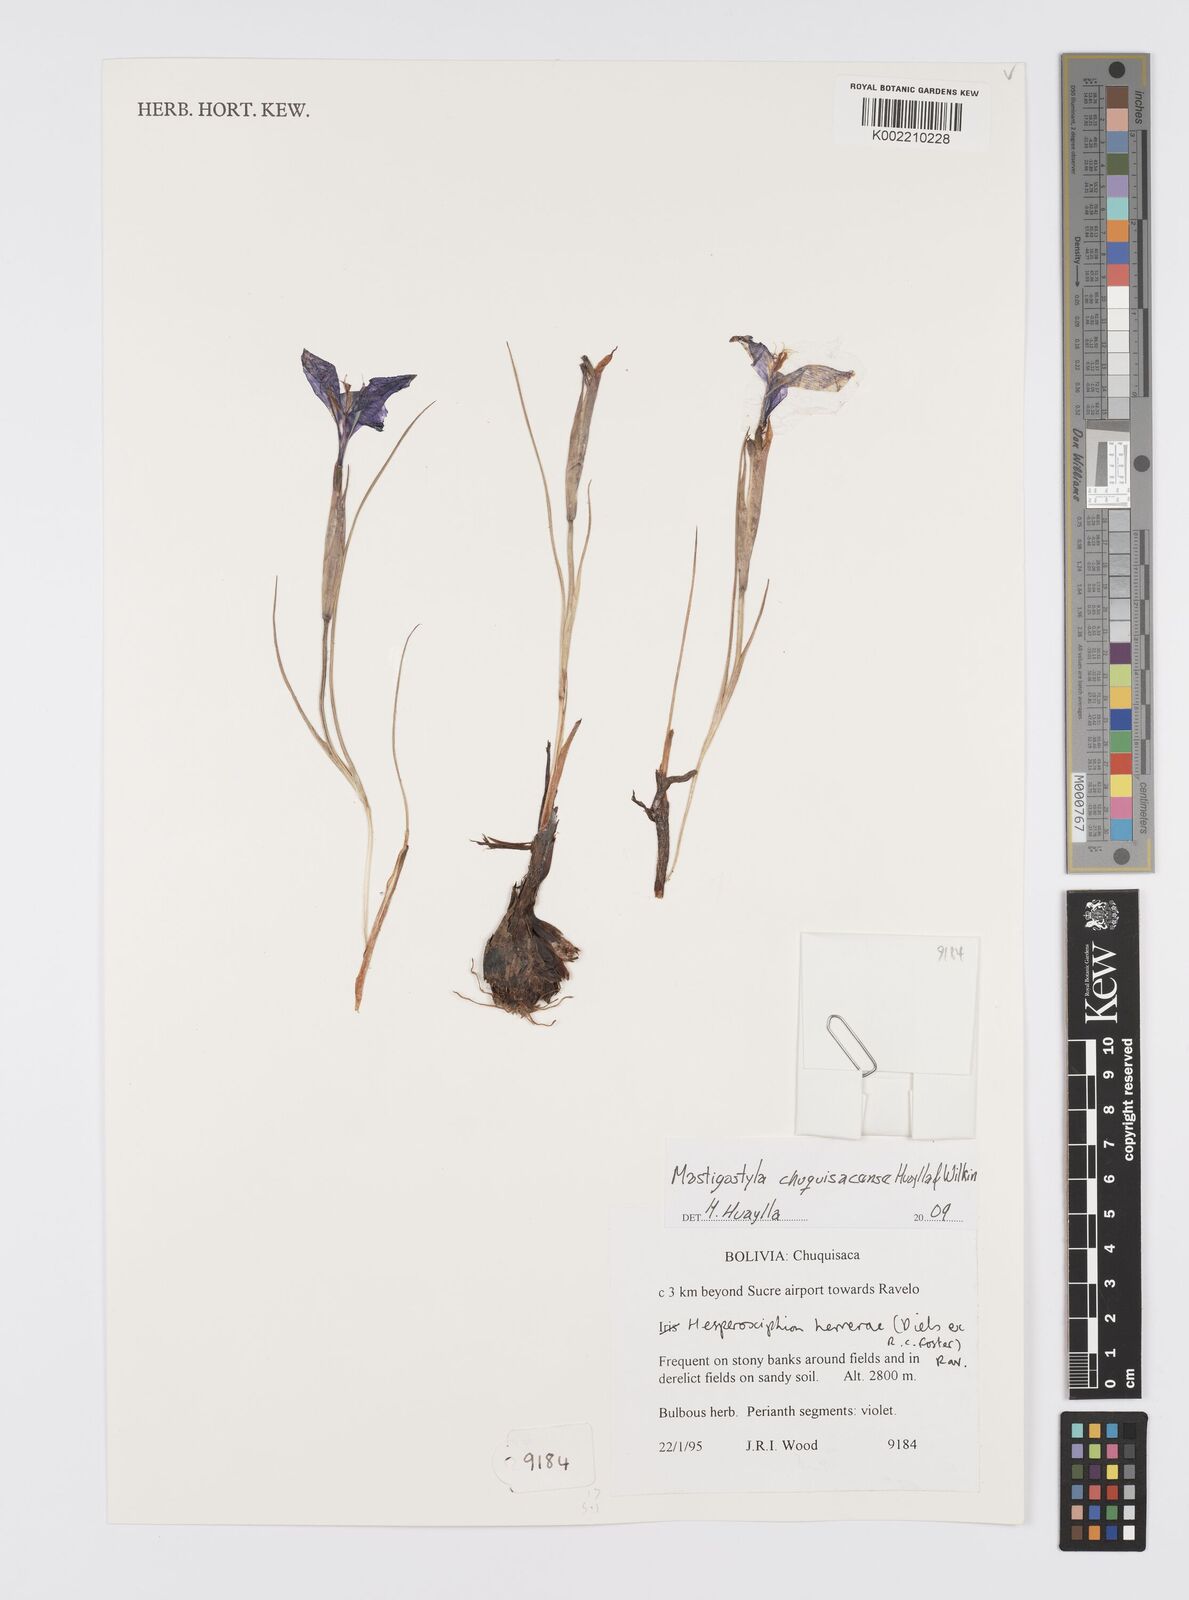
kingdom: Plantae
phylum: Tracheophyta
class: Liliopsida
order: Asparagales
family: Iridaceae
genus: Mastigostyla
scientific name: Mastigostyla chuquisacensis
